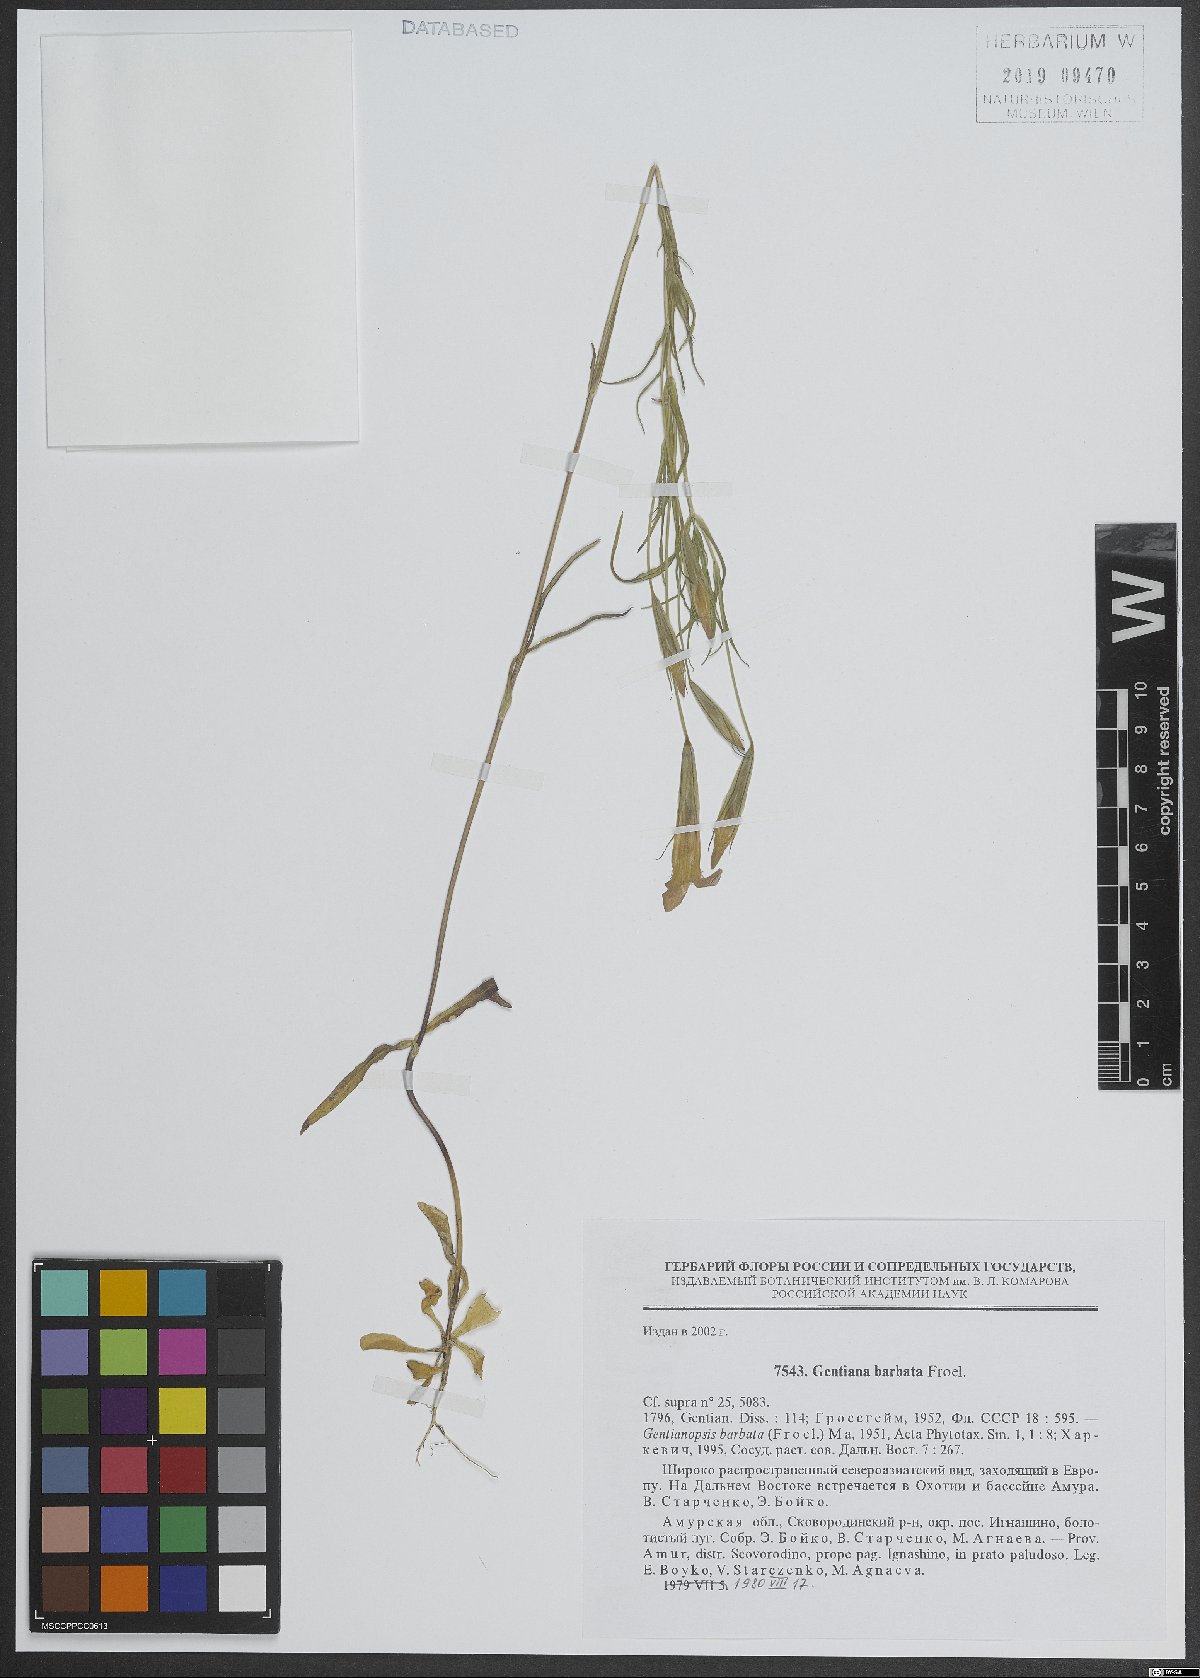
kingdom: Plantae
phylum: Tracheophyta
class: Magnoliopsida
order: Gentianales
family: Gentianaceae
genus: Gentianopsis
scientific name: Gentianopsis barbata
